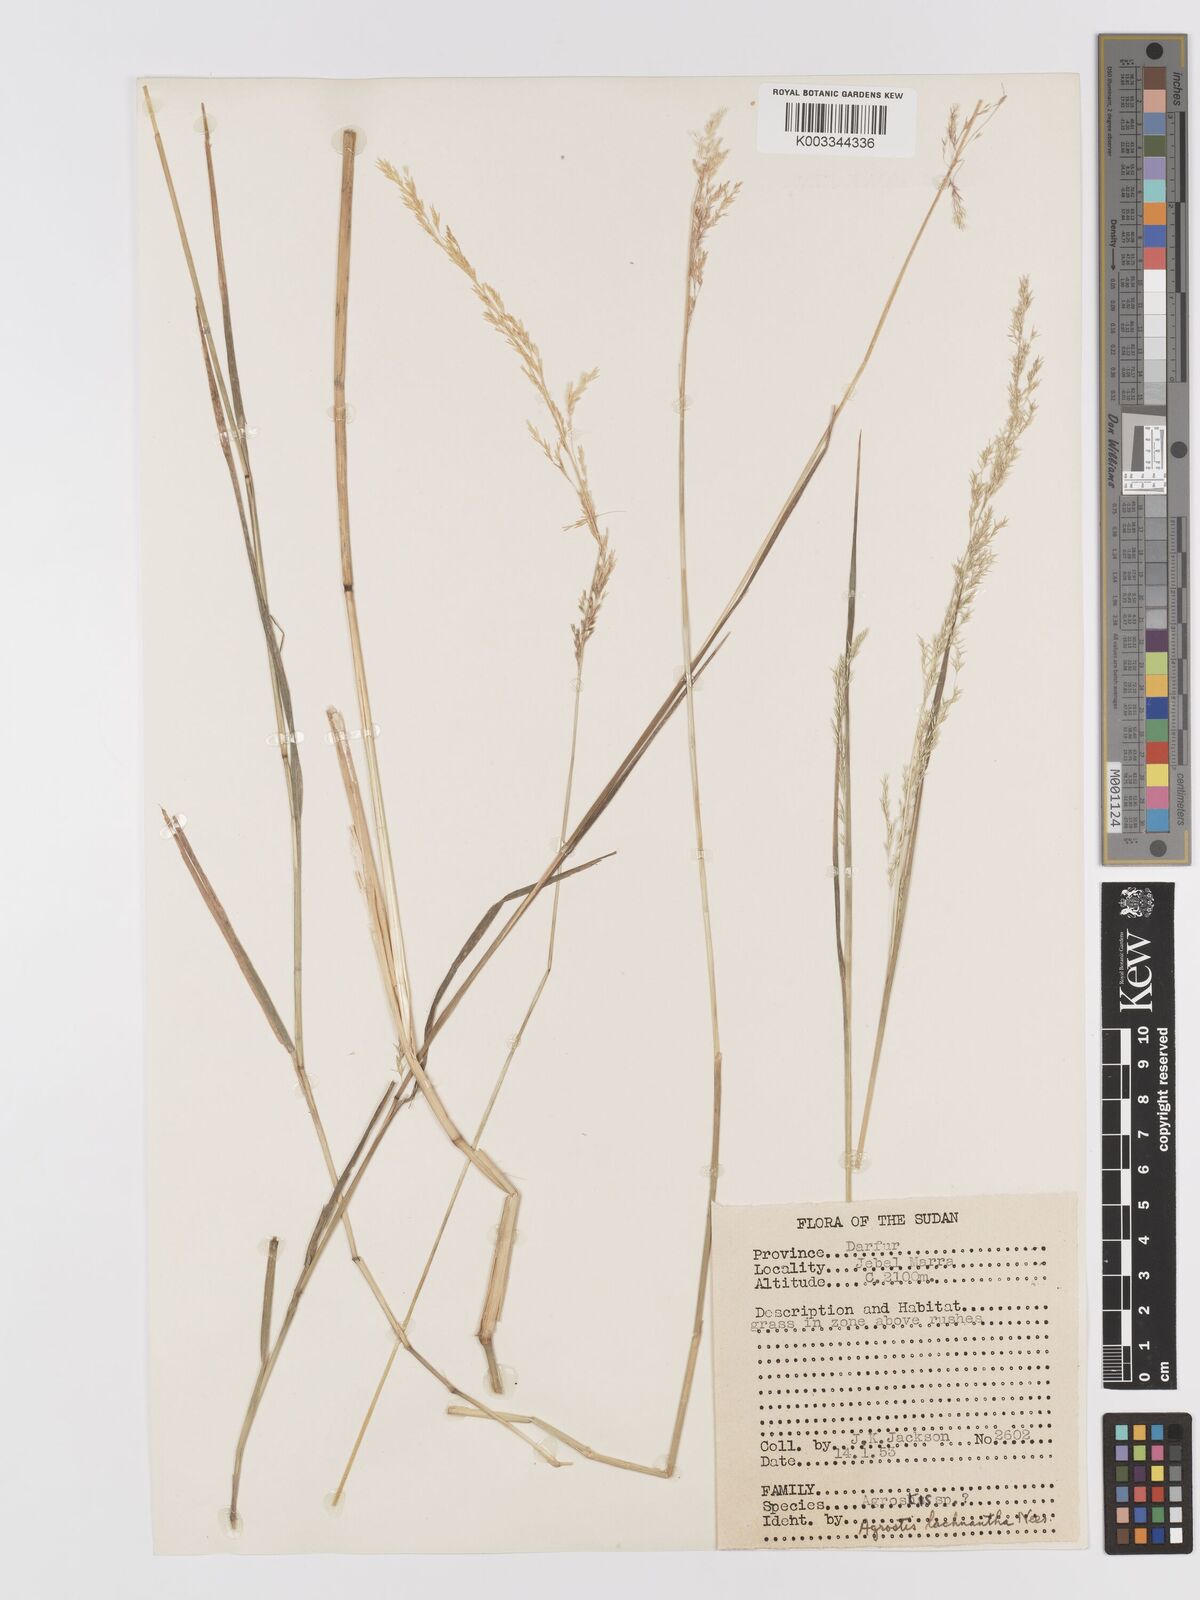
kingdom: Plantae
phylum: Tracheophyta
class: Liliopsida
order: Poales
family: Poaceae
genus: Lachnagrostis
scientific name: Lachnagrostis lachnantha
